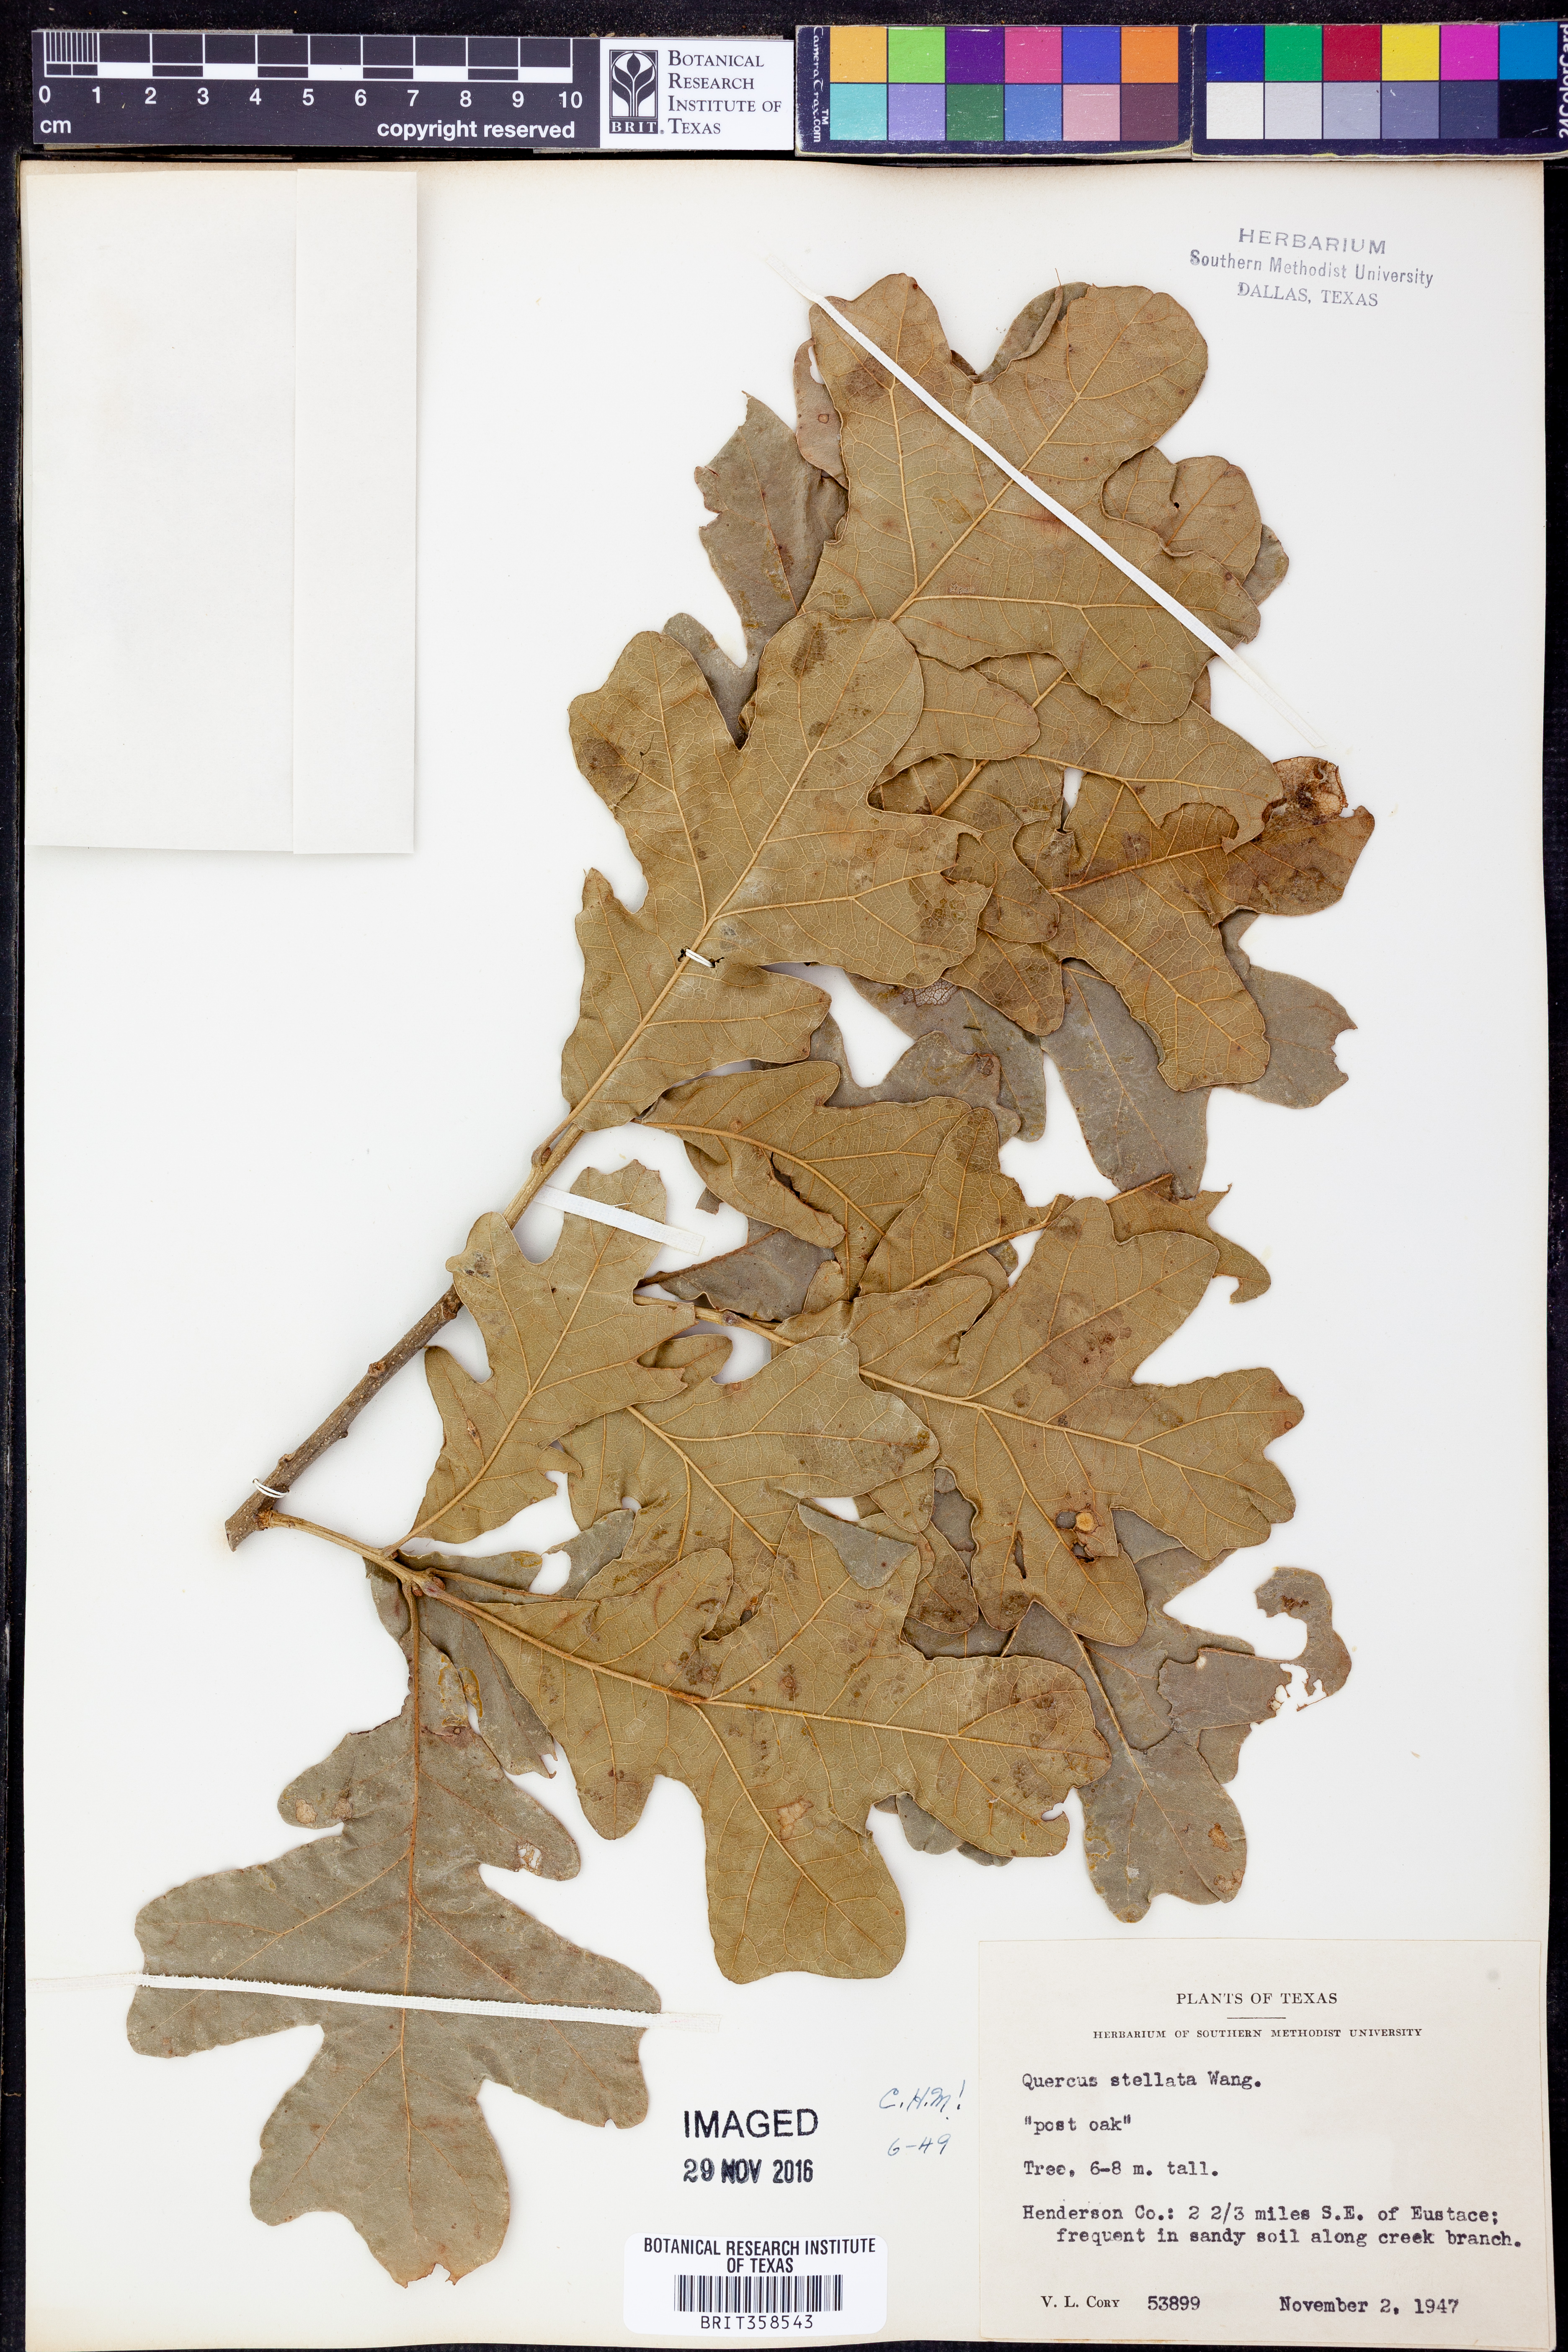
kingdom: Plantae
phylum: Tracheophyta
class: Magnoliopsida
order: Fagales
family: Fagaceae
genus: Quercus
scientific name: Quercus stellata
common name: Post oak
